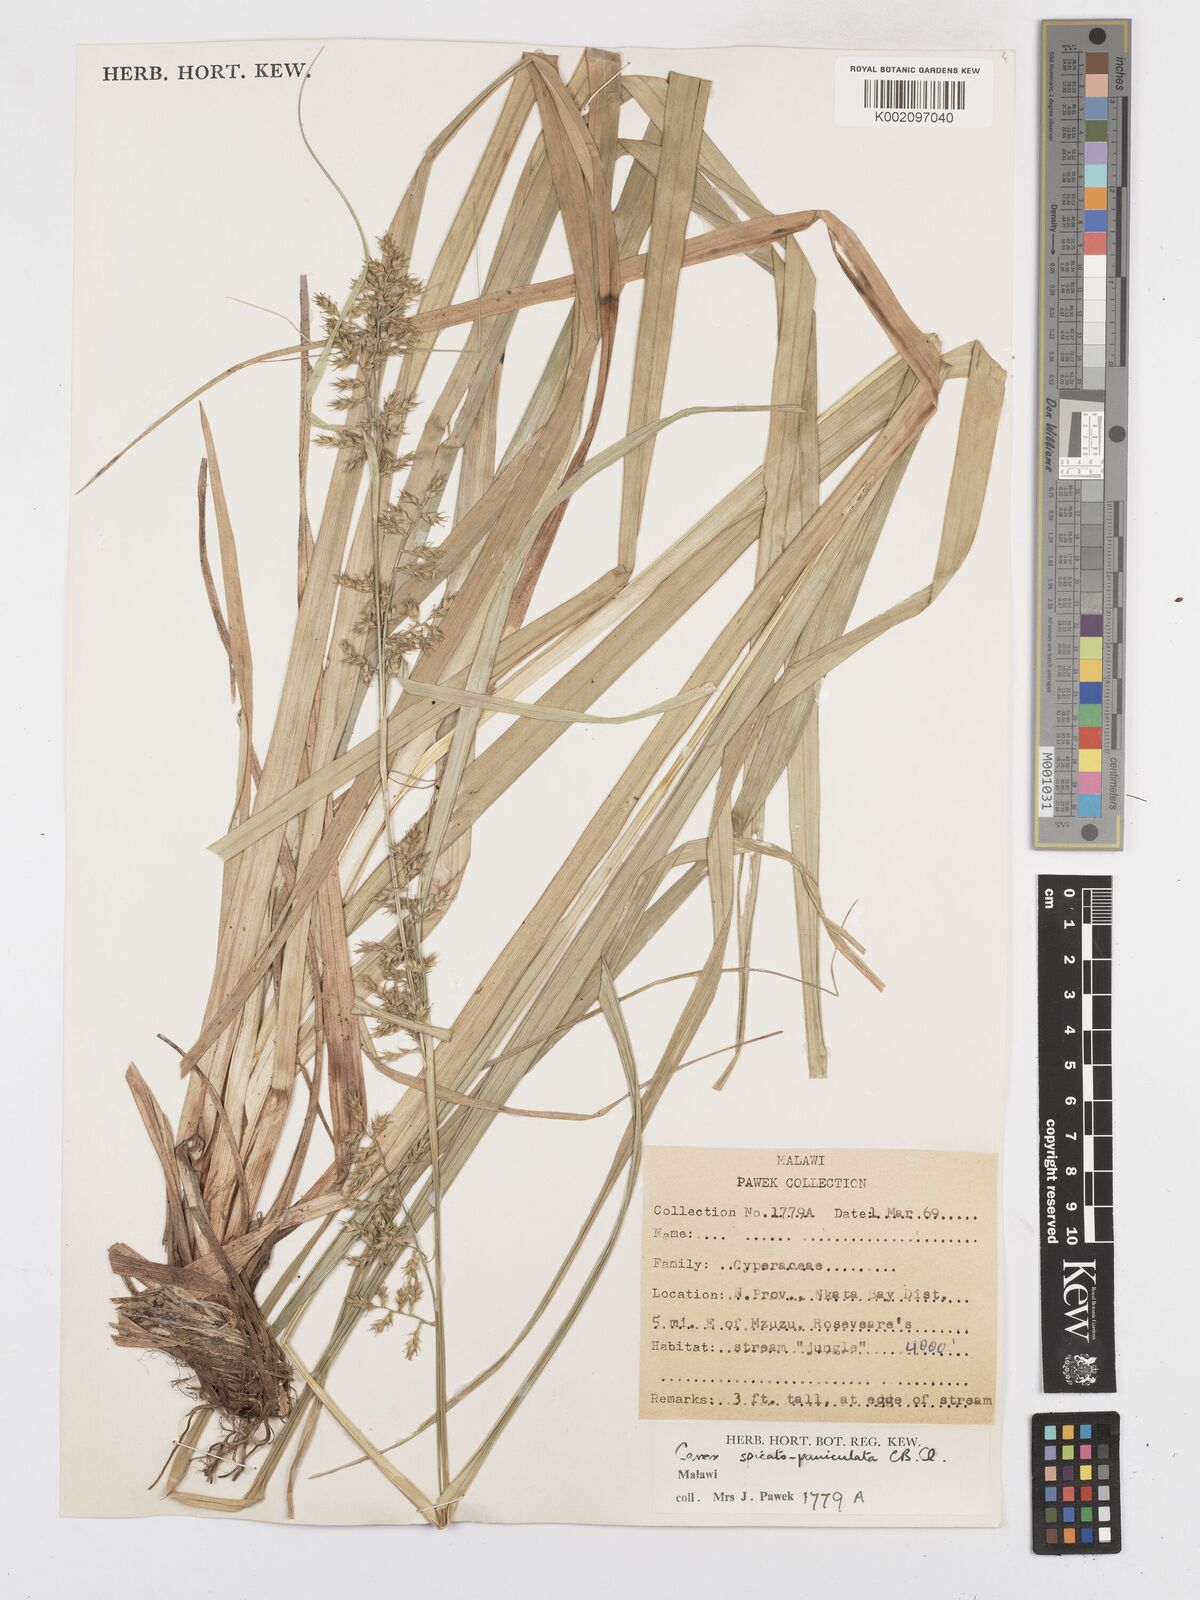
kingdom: Plantae
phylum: Tracheophyta
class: Liliopsida
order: Poales
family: Cyperaceae
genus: Carex
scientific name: Carex spicatopaniculata
